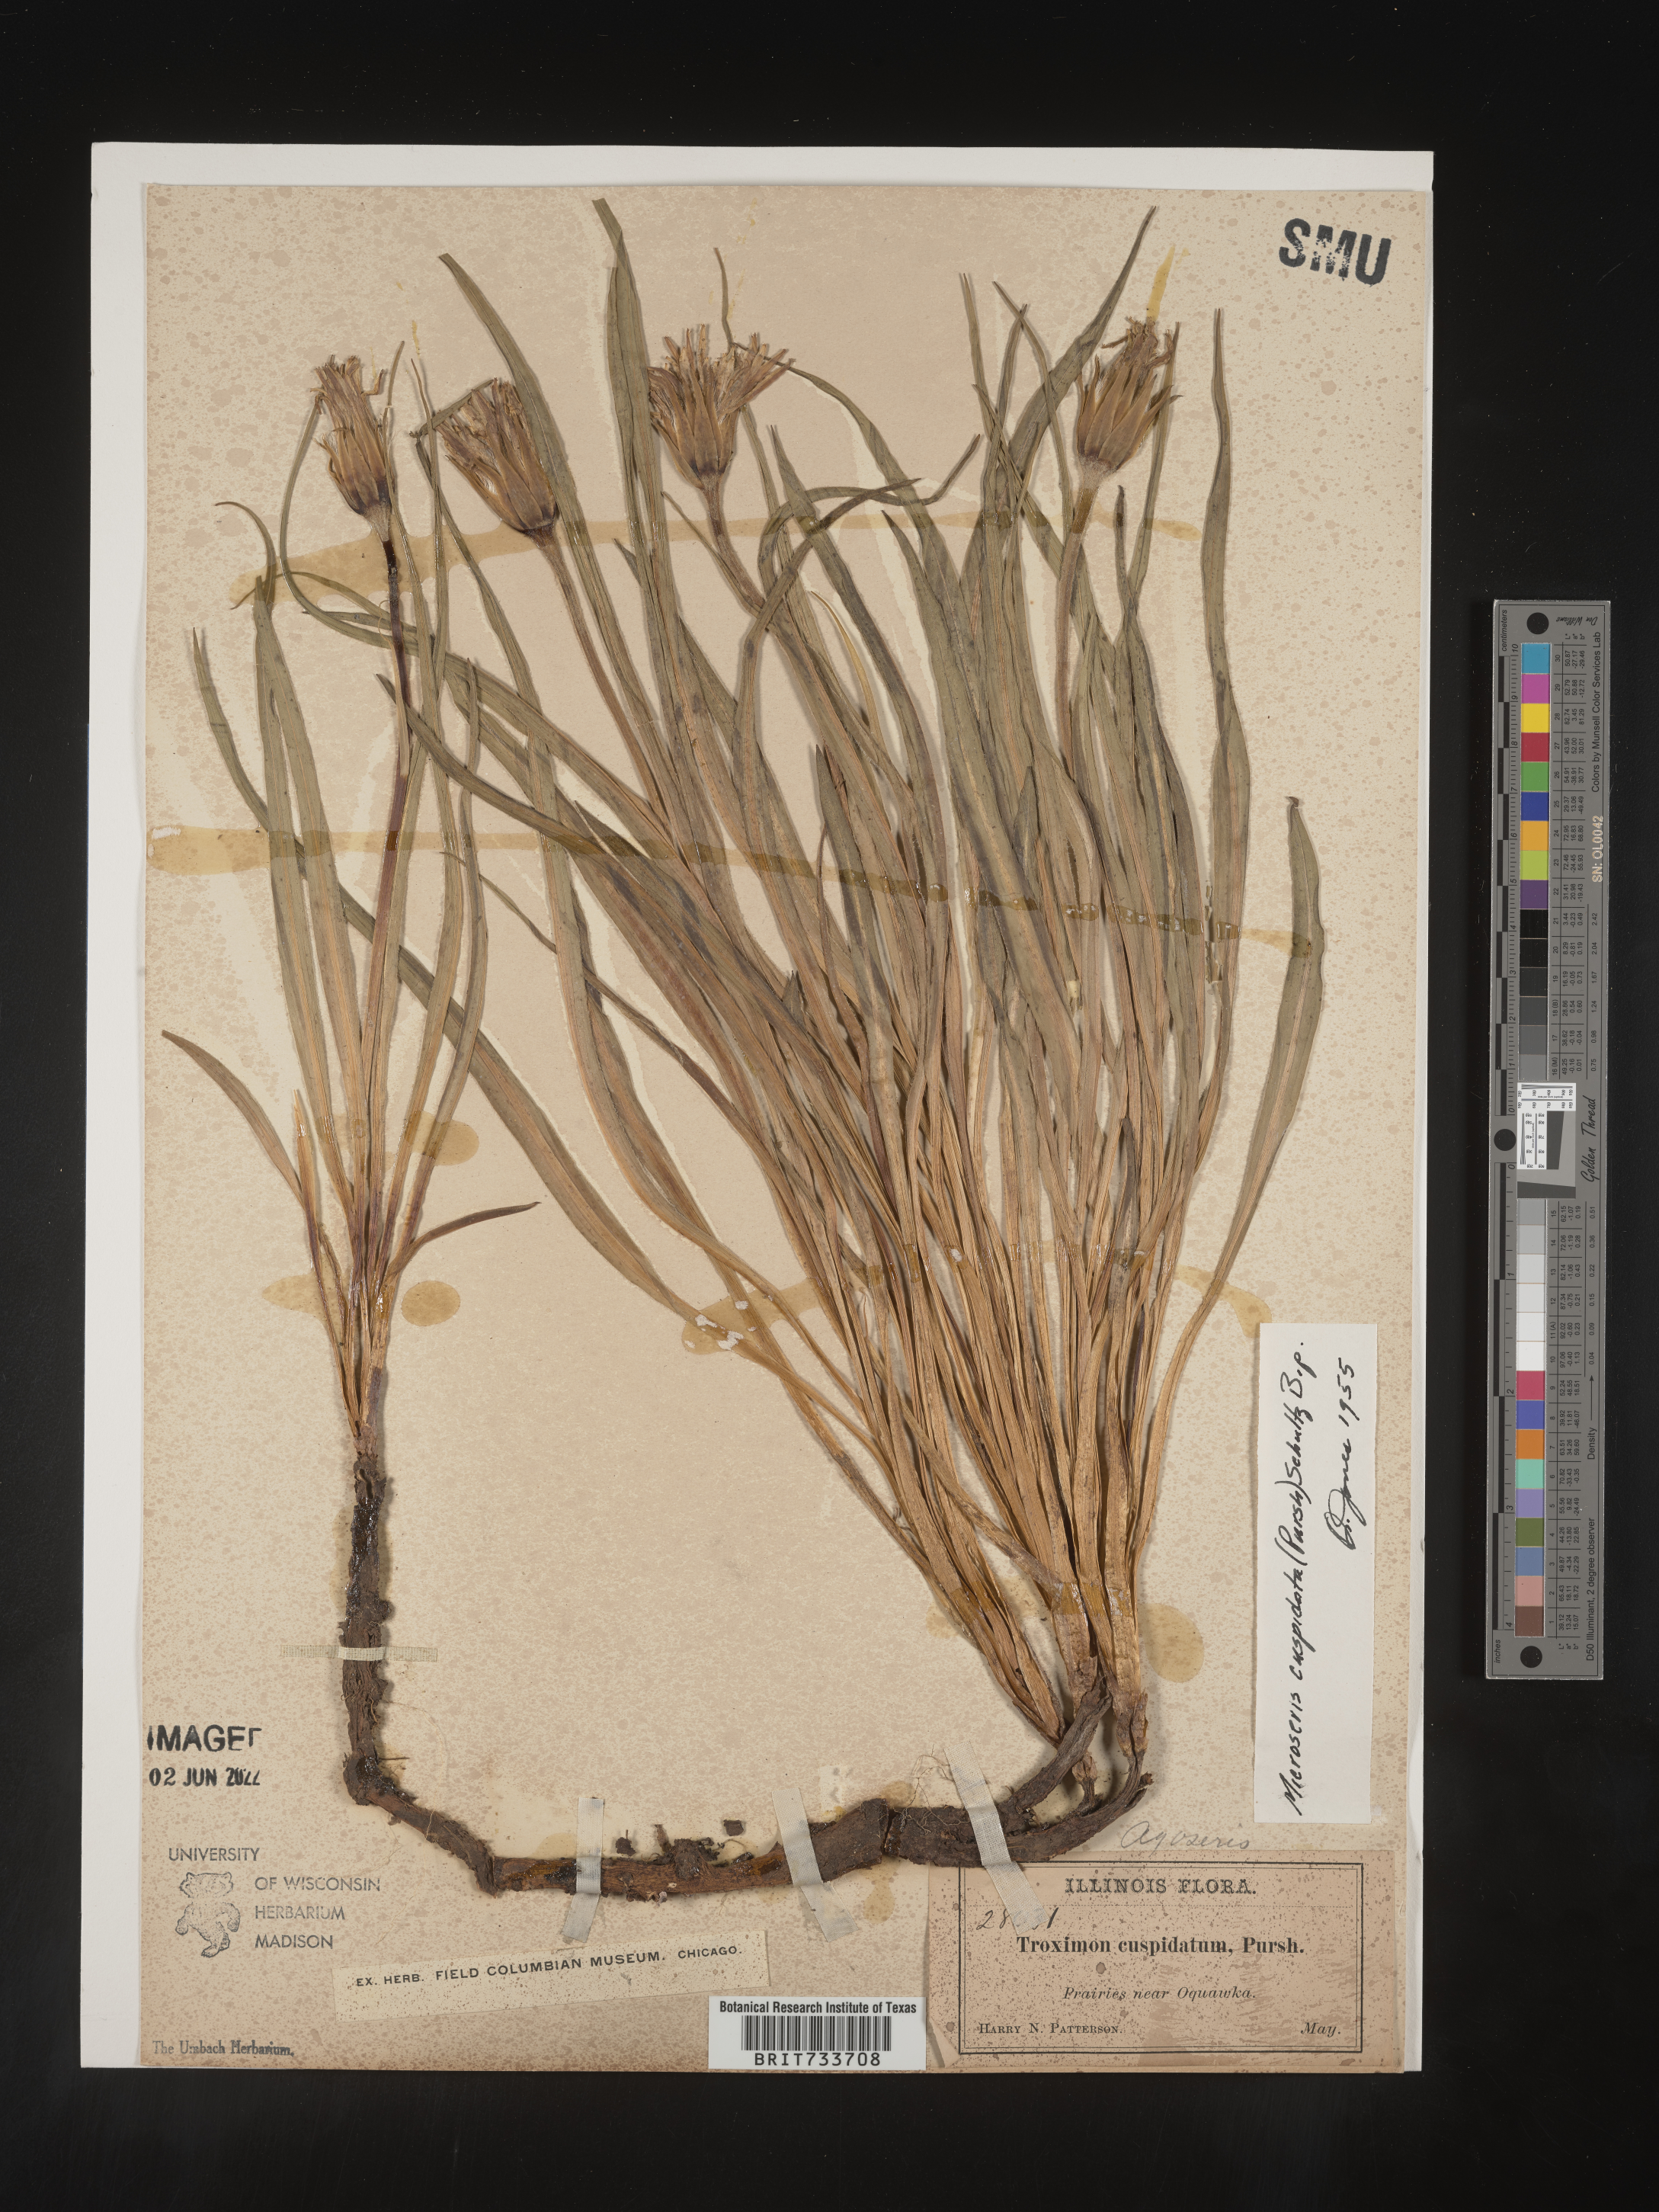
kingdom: Plantae
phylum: Tracheophyta
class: Magnoliopsida
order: Asterales
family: Asteraceae
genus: Microseris
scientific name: Microseris
